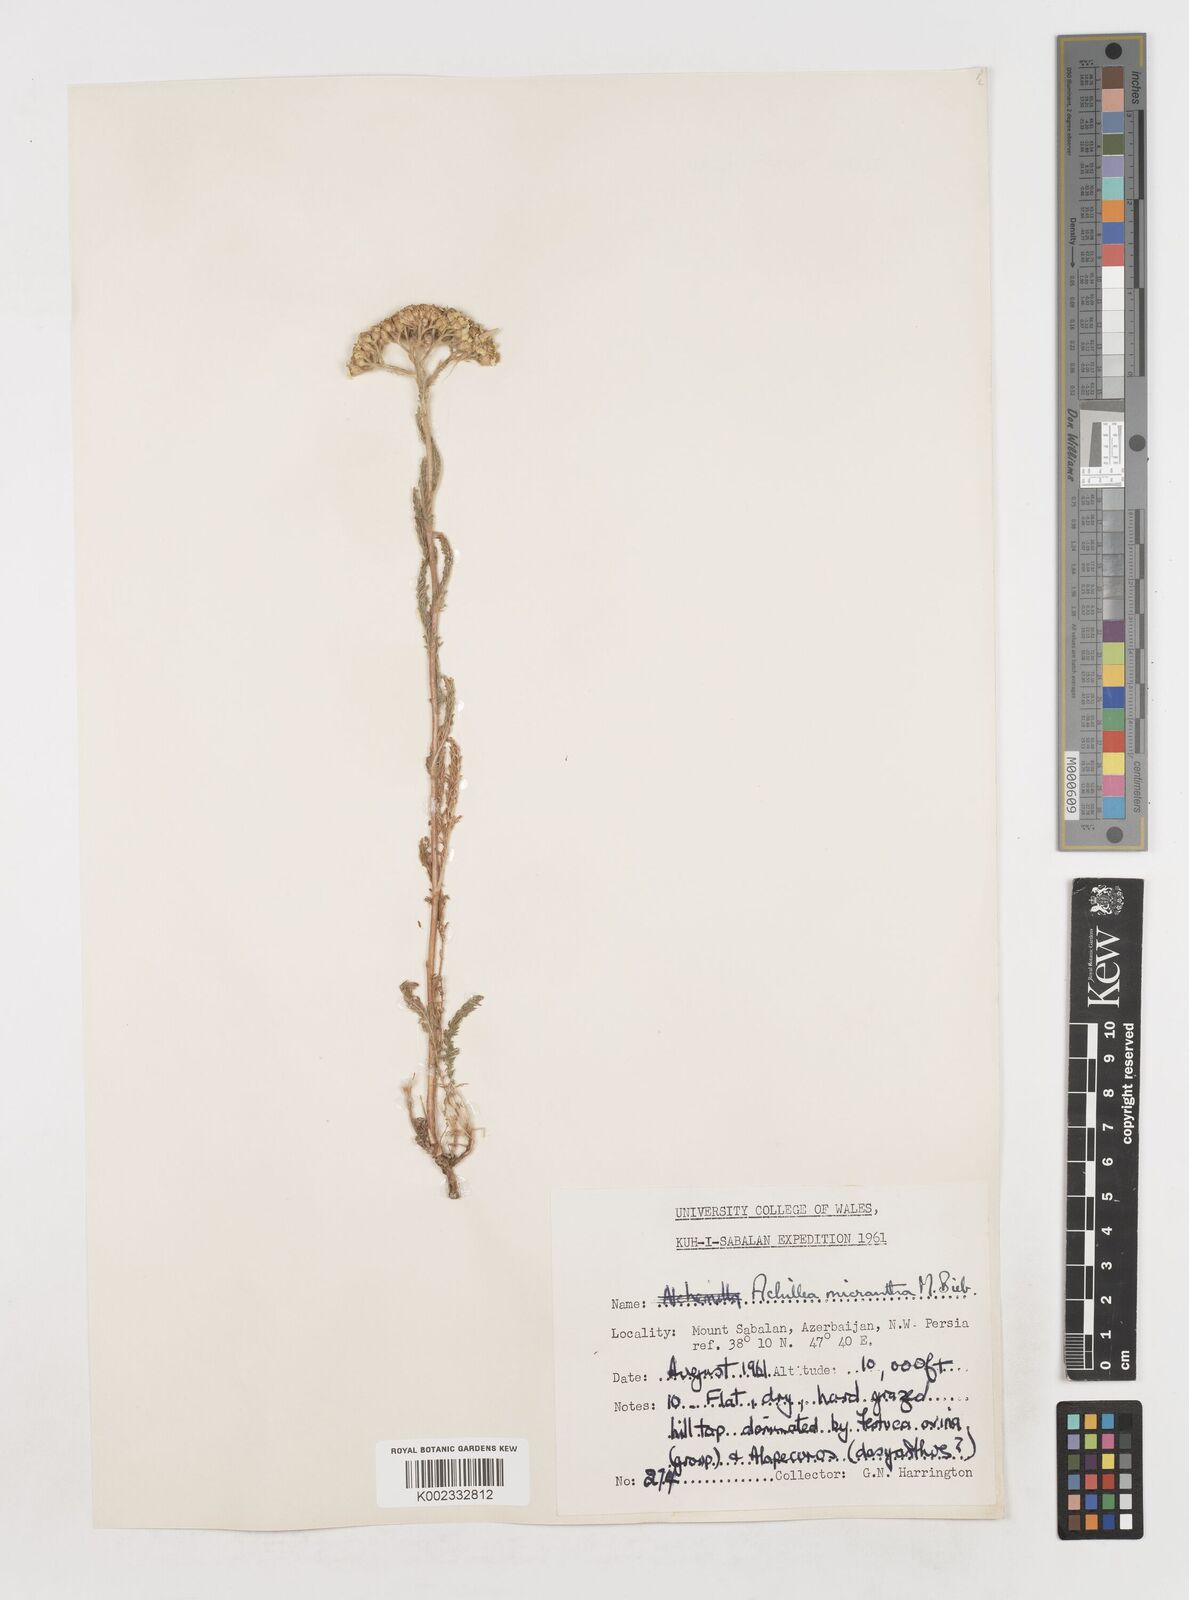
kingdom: Plantae
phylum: Tracheophyta
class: Magnoliopsida
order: Asterales
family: Asteraceae
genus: Achillea
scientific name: Achillea arabica
